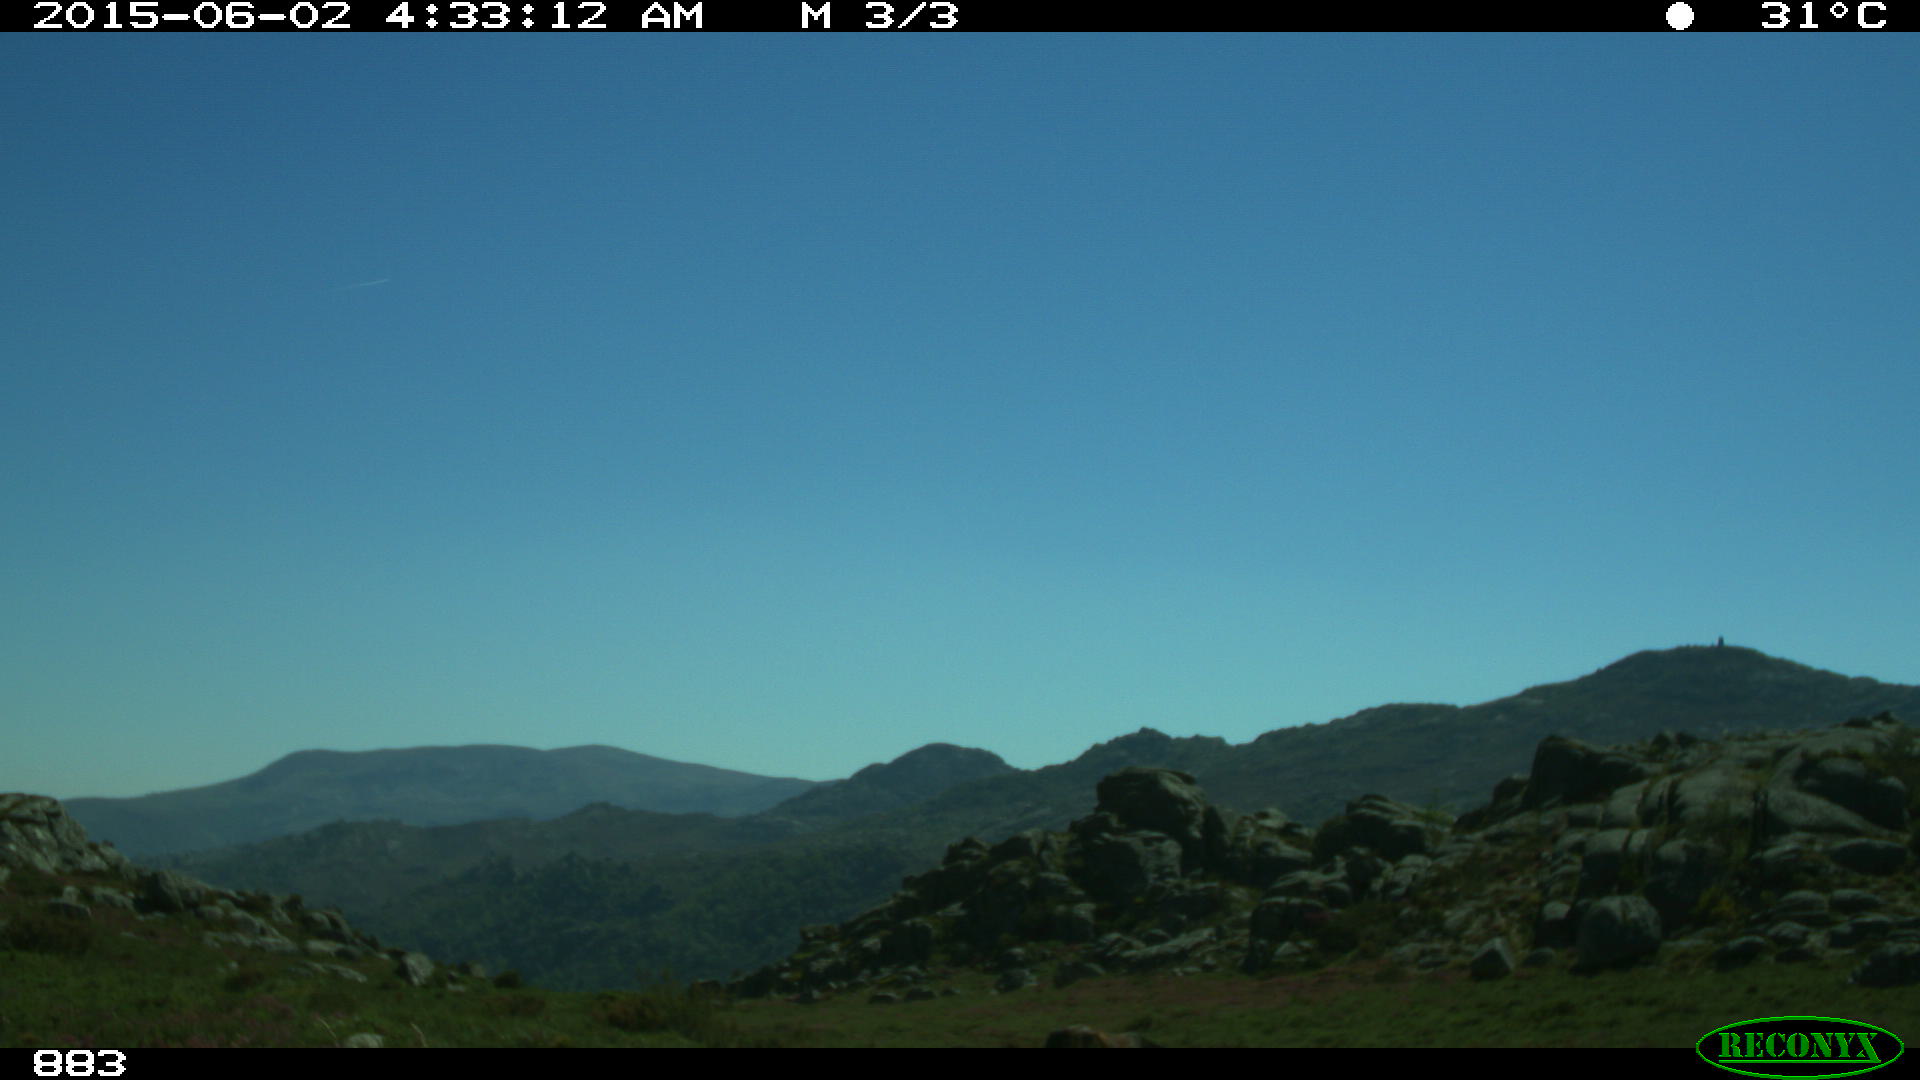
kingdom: Animalia
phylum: Chordata
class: Mammalia
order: Perissodactyla
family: Equidae
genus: Equus
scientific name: Equus caballus
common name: Horse
